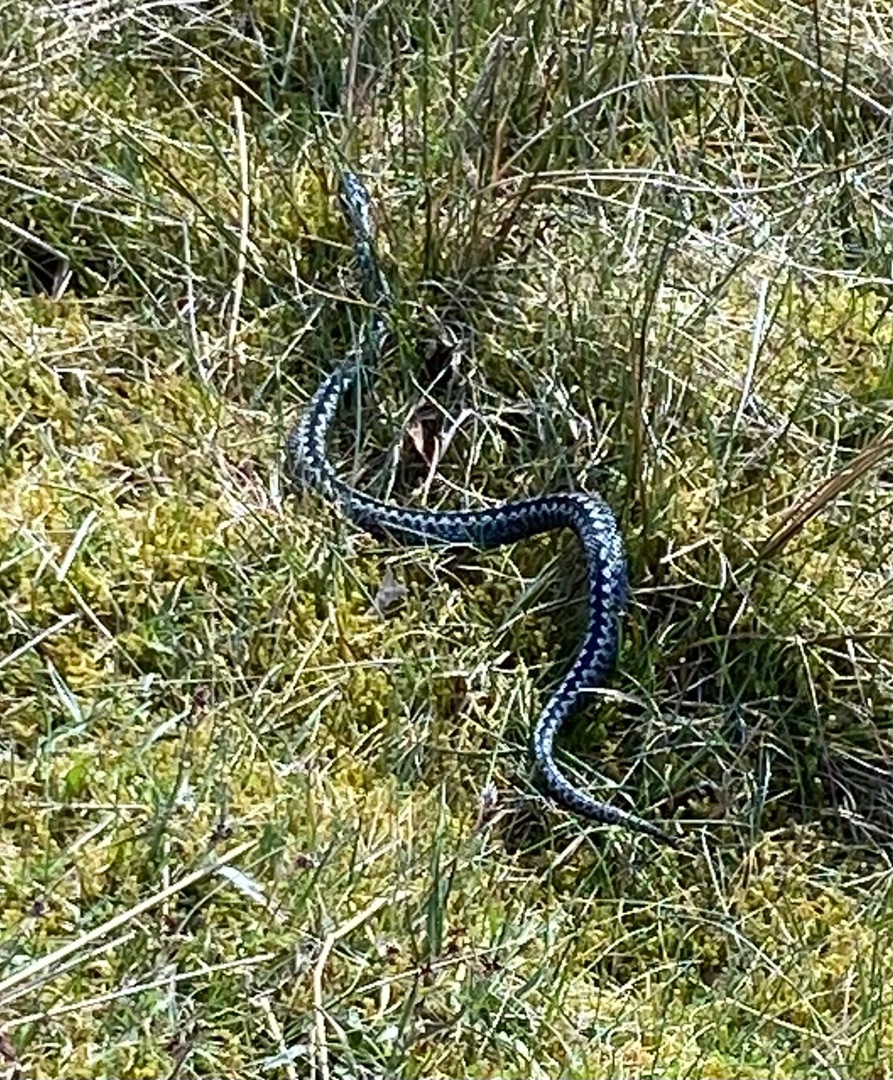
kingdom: Animalia
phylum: Chordata
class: Squamata
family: Viperidae
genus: Vipera
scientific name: Vipera berus
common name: Hugorm
